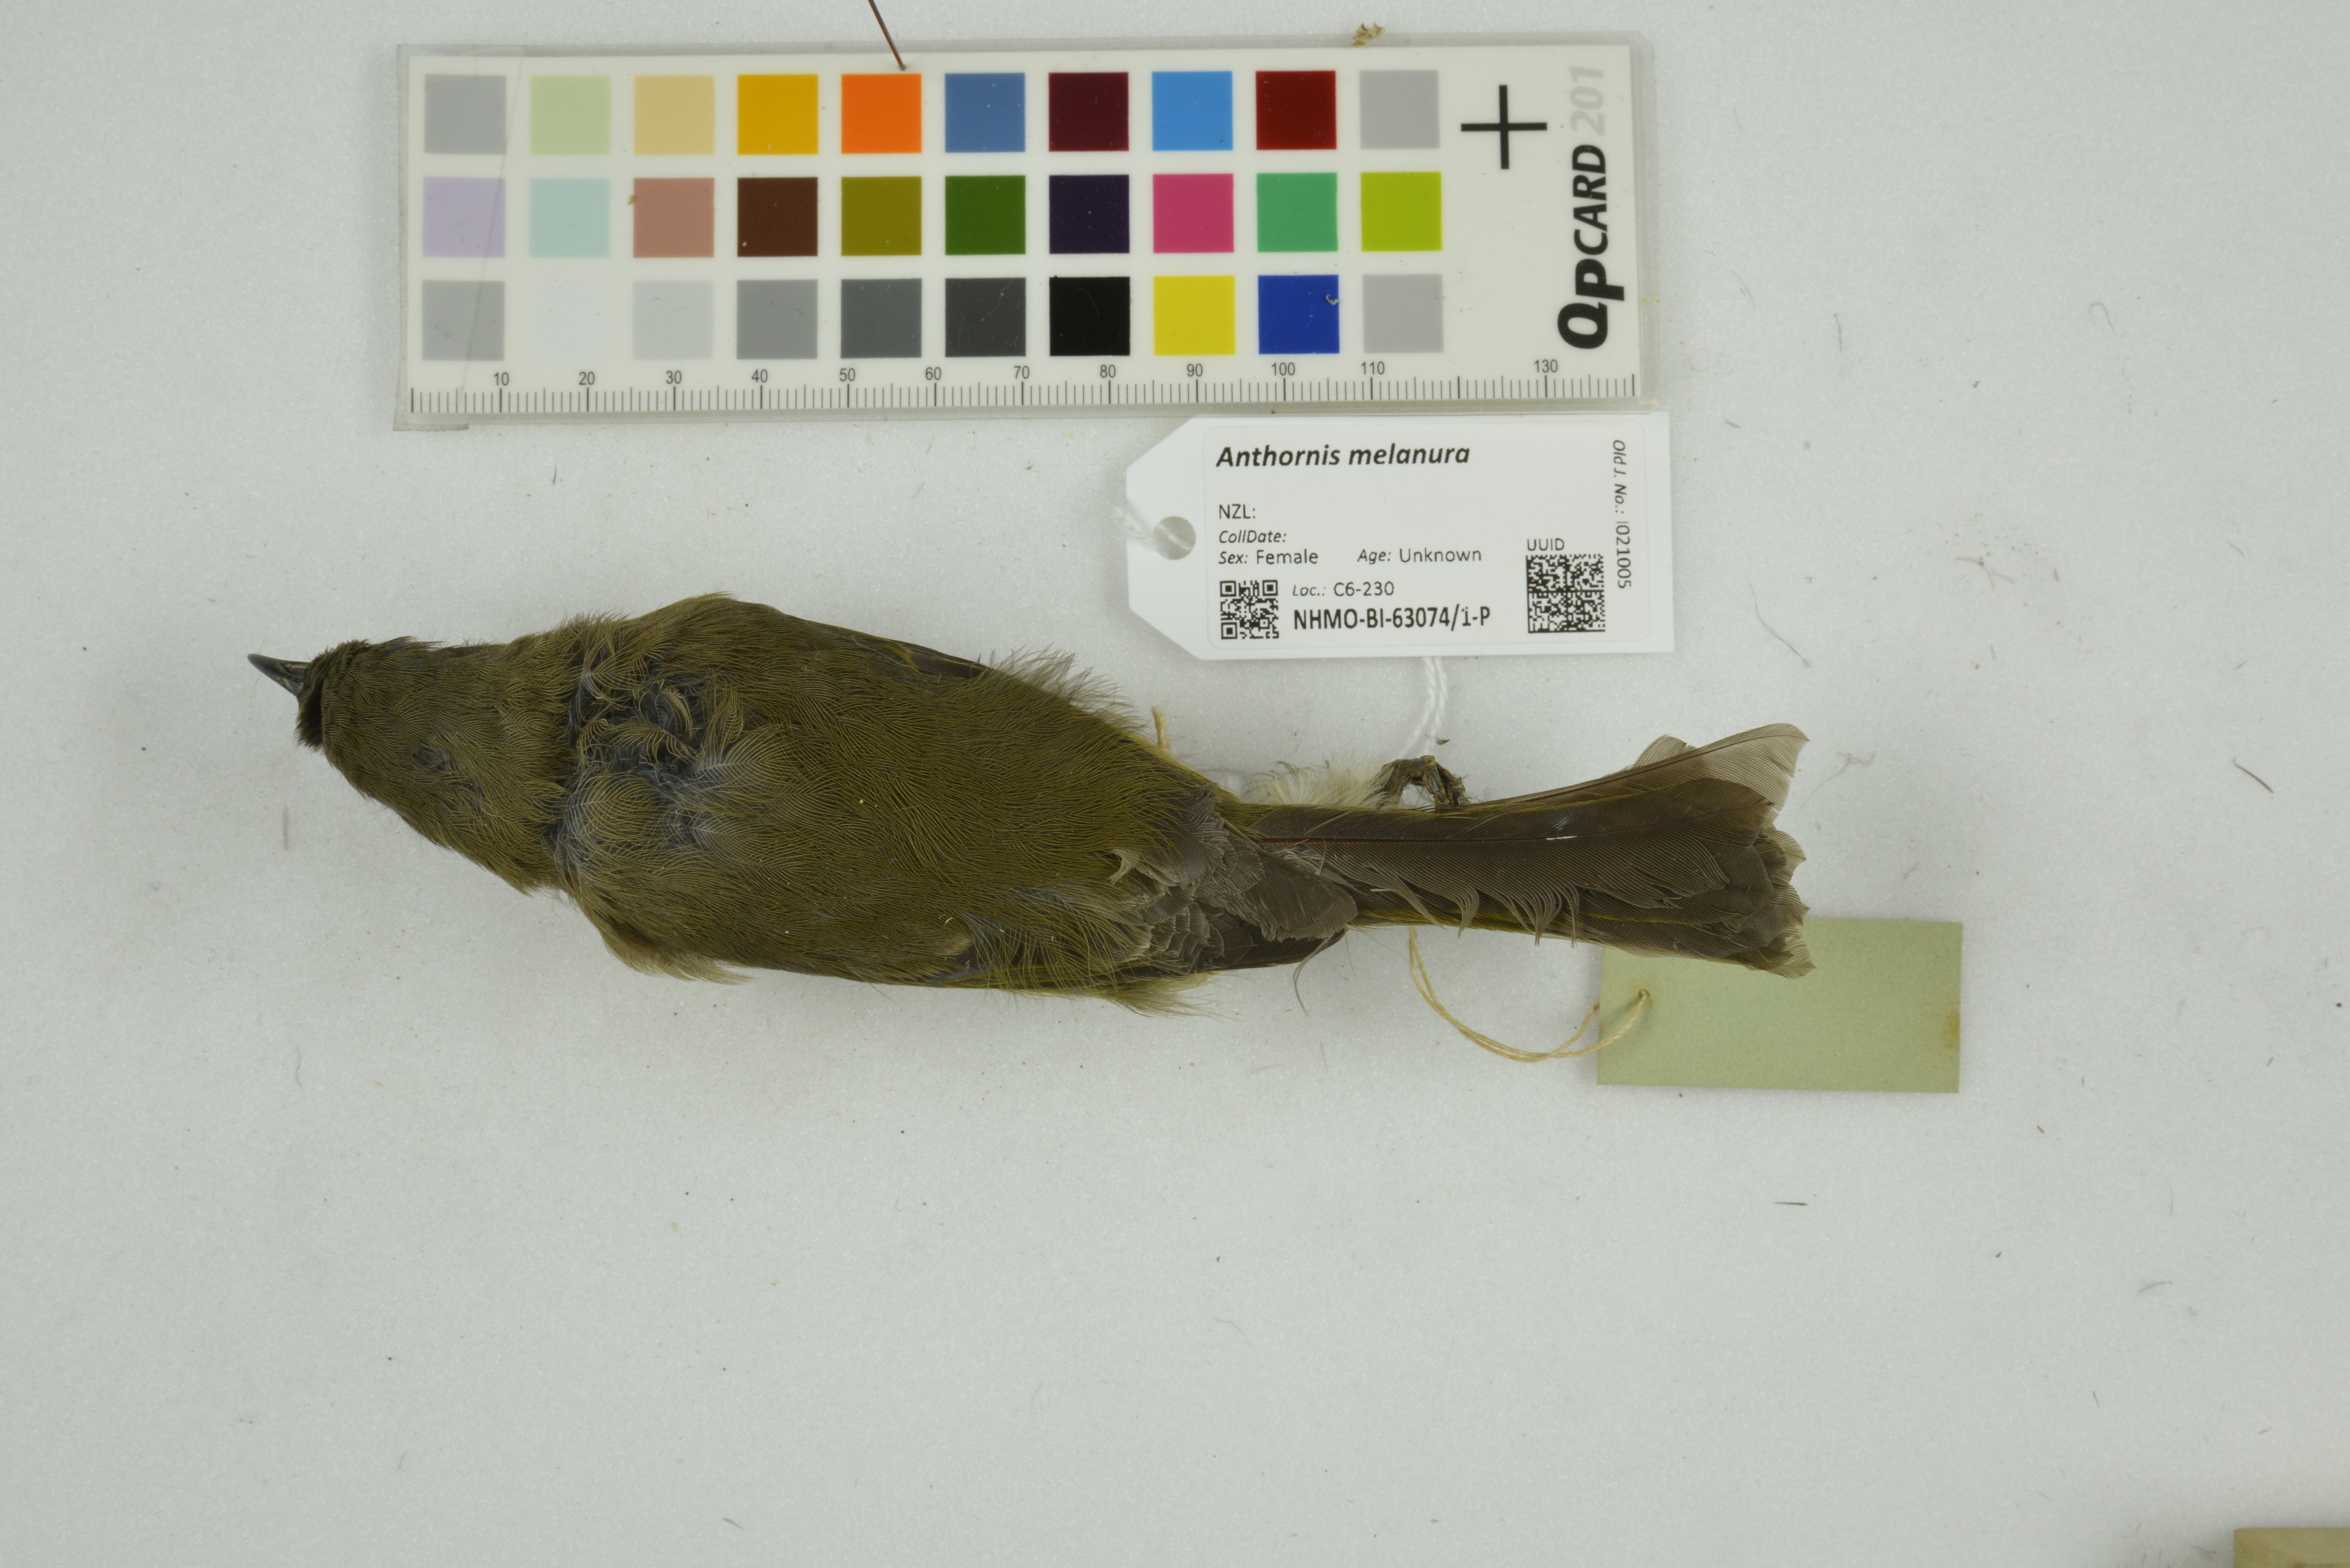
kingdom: Animalia
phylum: Chordata
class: Aves
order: Passeriformes
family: Meliphagidae
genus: Anthornis
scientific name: Anthornis melanura
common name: New zealand bellbird
